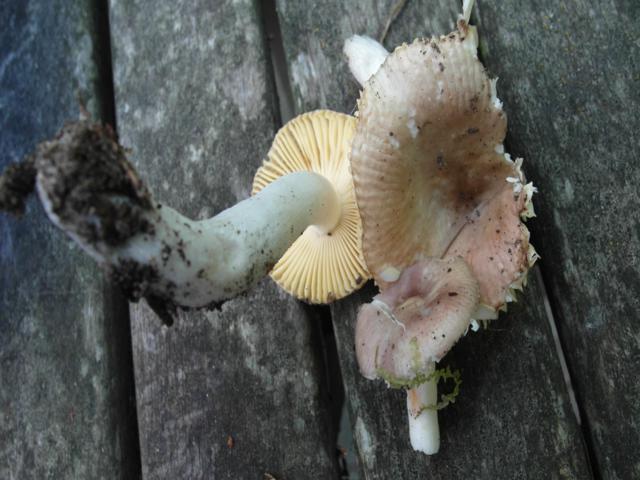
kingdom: Fungi
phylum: Basidiomycota
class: Agaricomycetes
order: Russulales
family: Russulaceae
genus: Russula
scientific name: Russula cessans
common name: fyrre-skørhat
